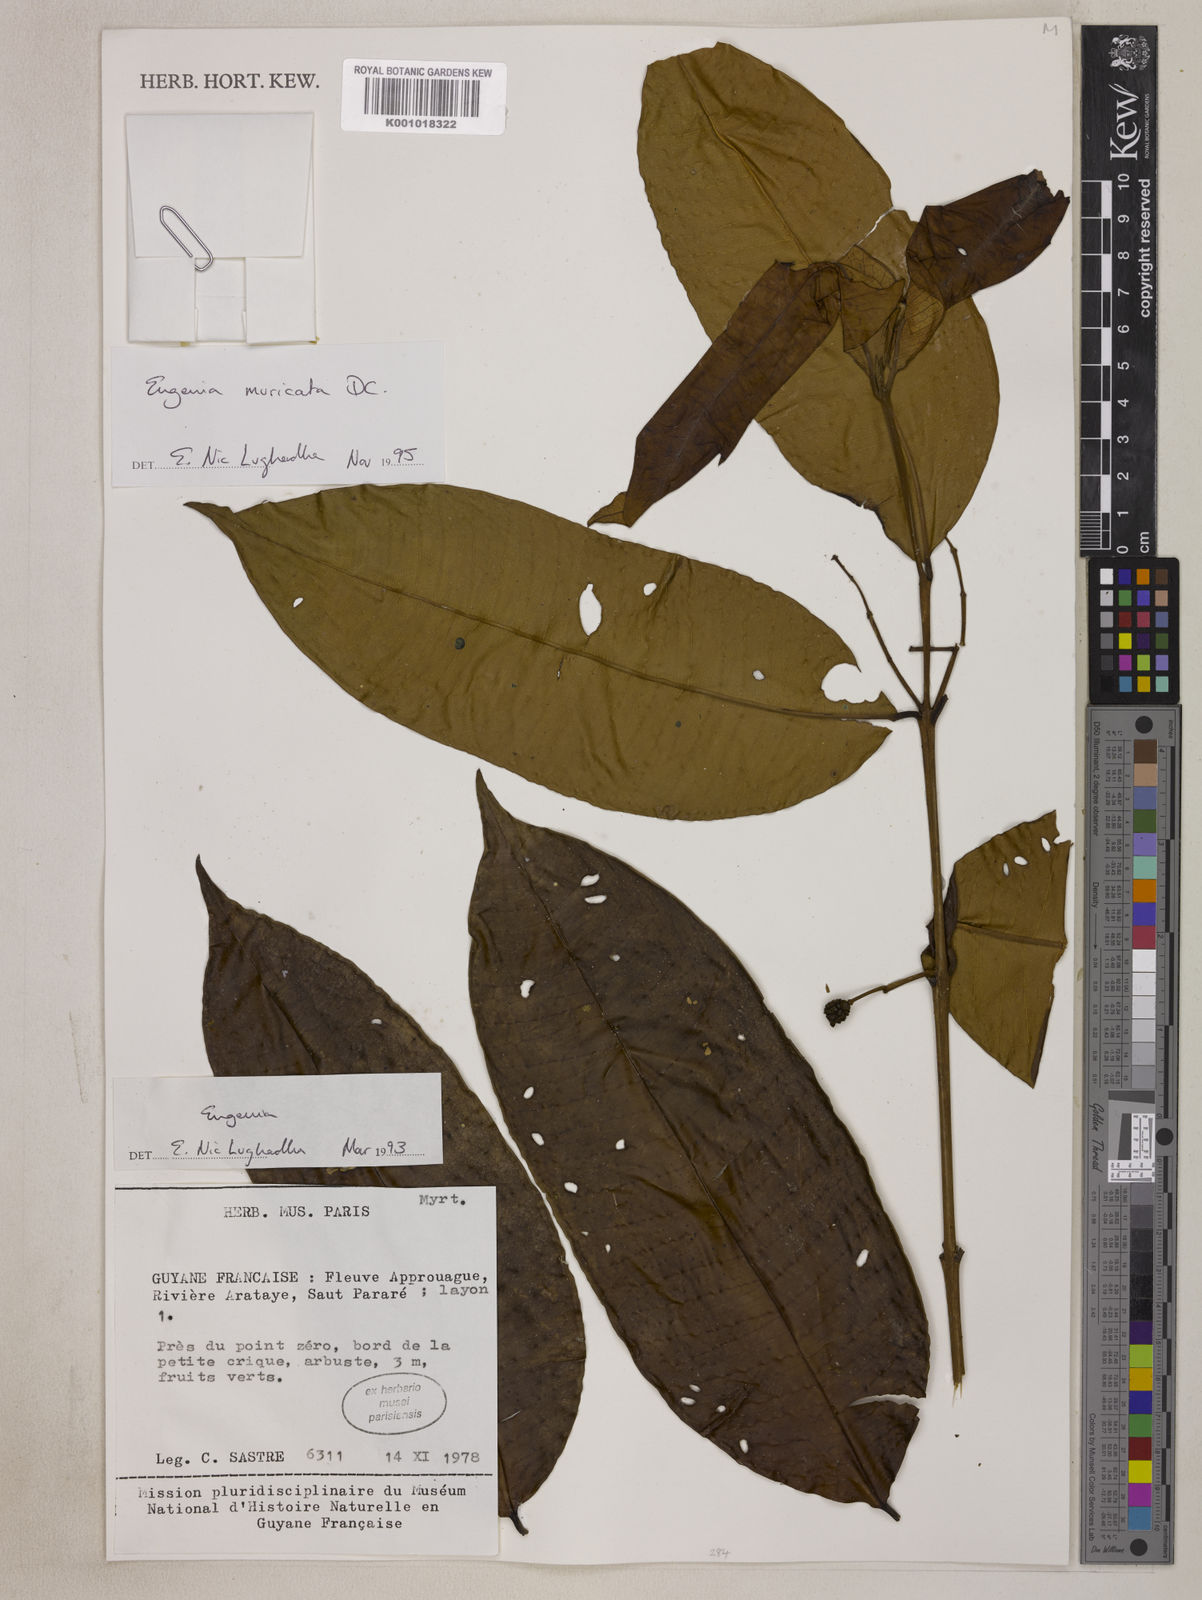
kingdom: Plantae
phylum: Tracheophyta
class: Magnoliopsida
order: Myrtales
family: Myrtaceae
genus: Eugenia
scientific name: Eugenia muricata
